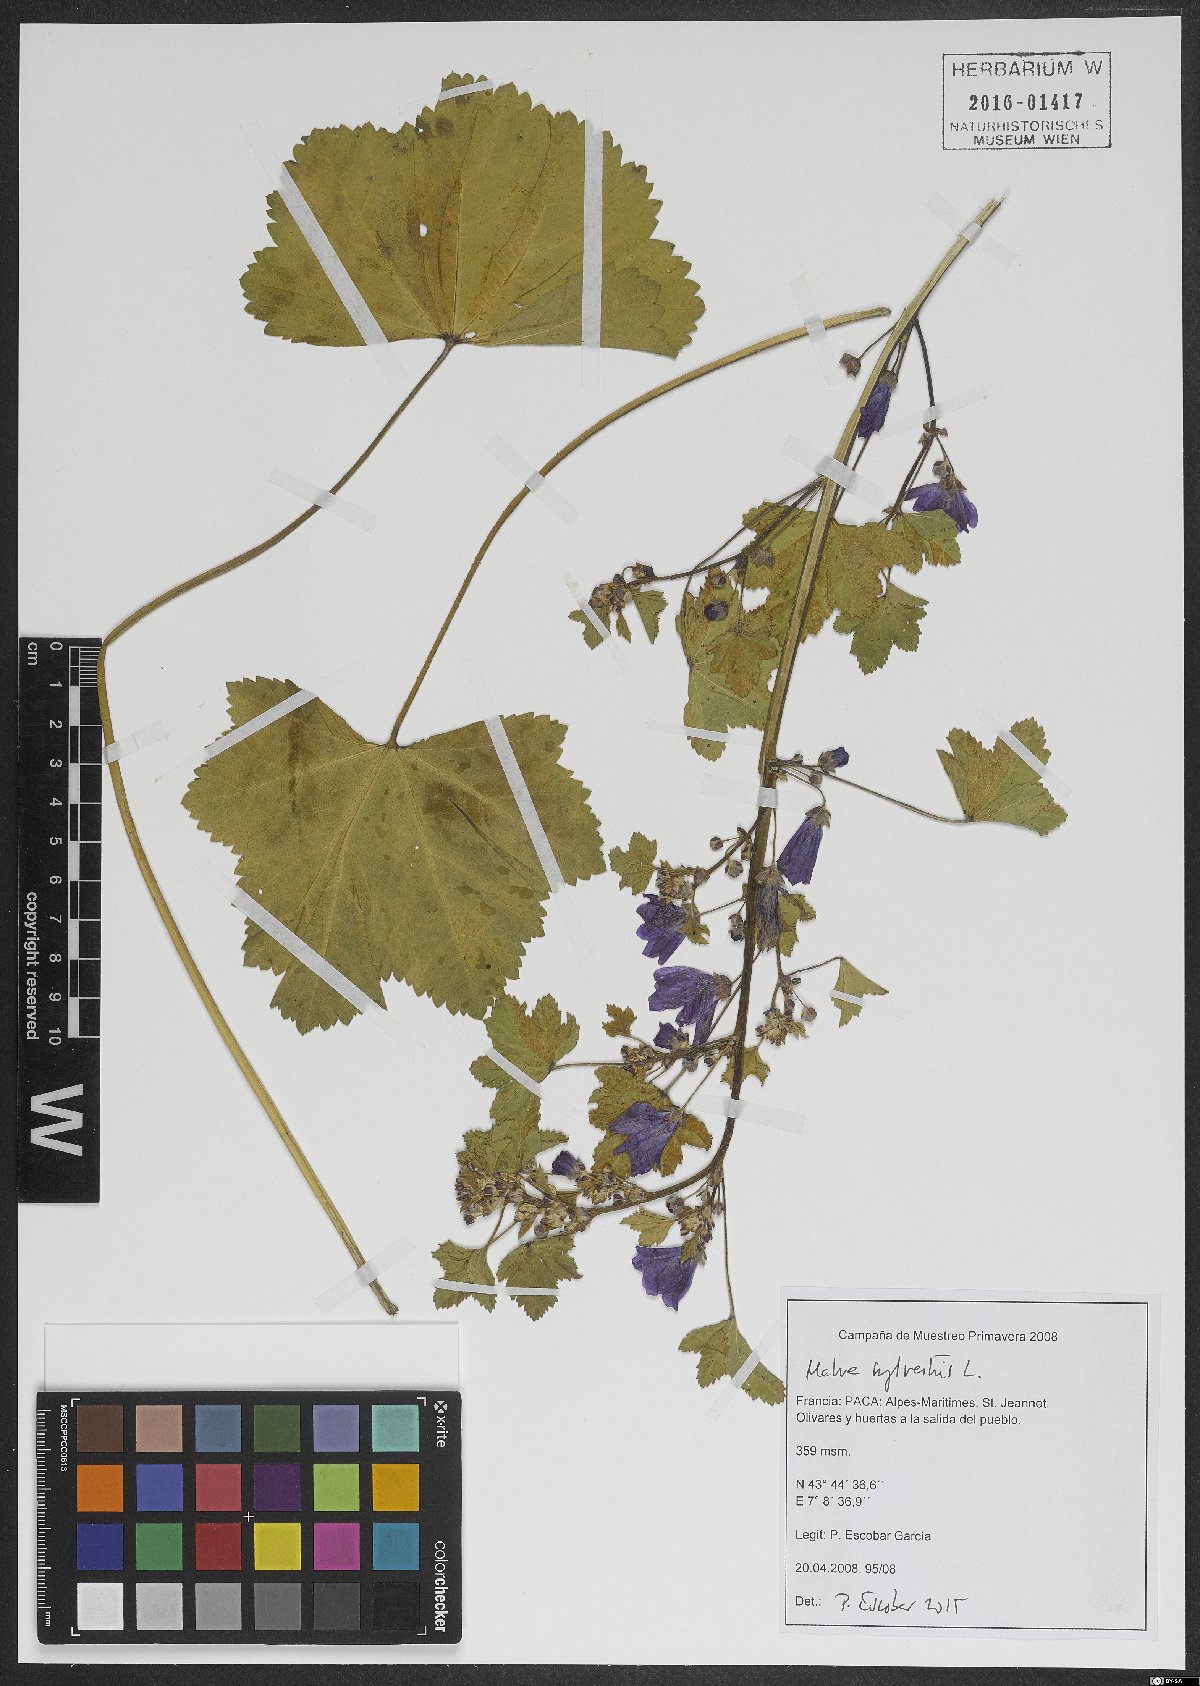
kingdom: Plantae
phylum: Tracheophyta
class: Magnoliopsida
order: Malvales
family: Malvaceae
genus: Malva
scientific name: Malva sylvestris
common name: Common mallow
